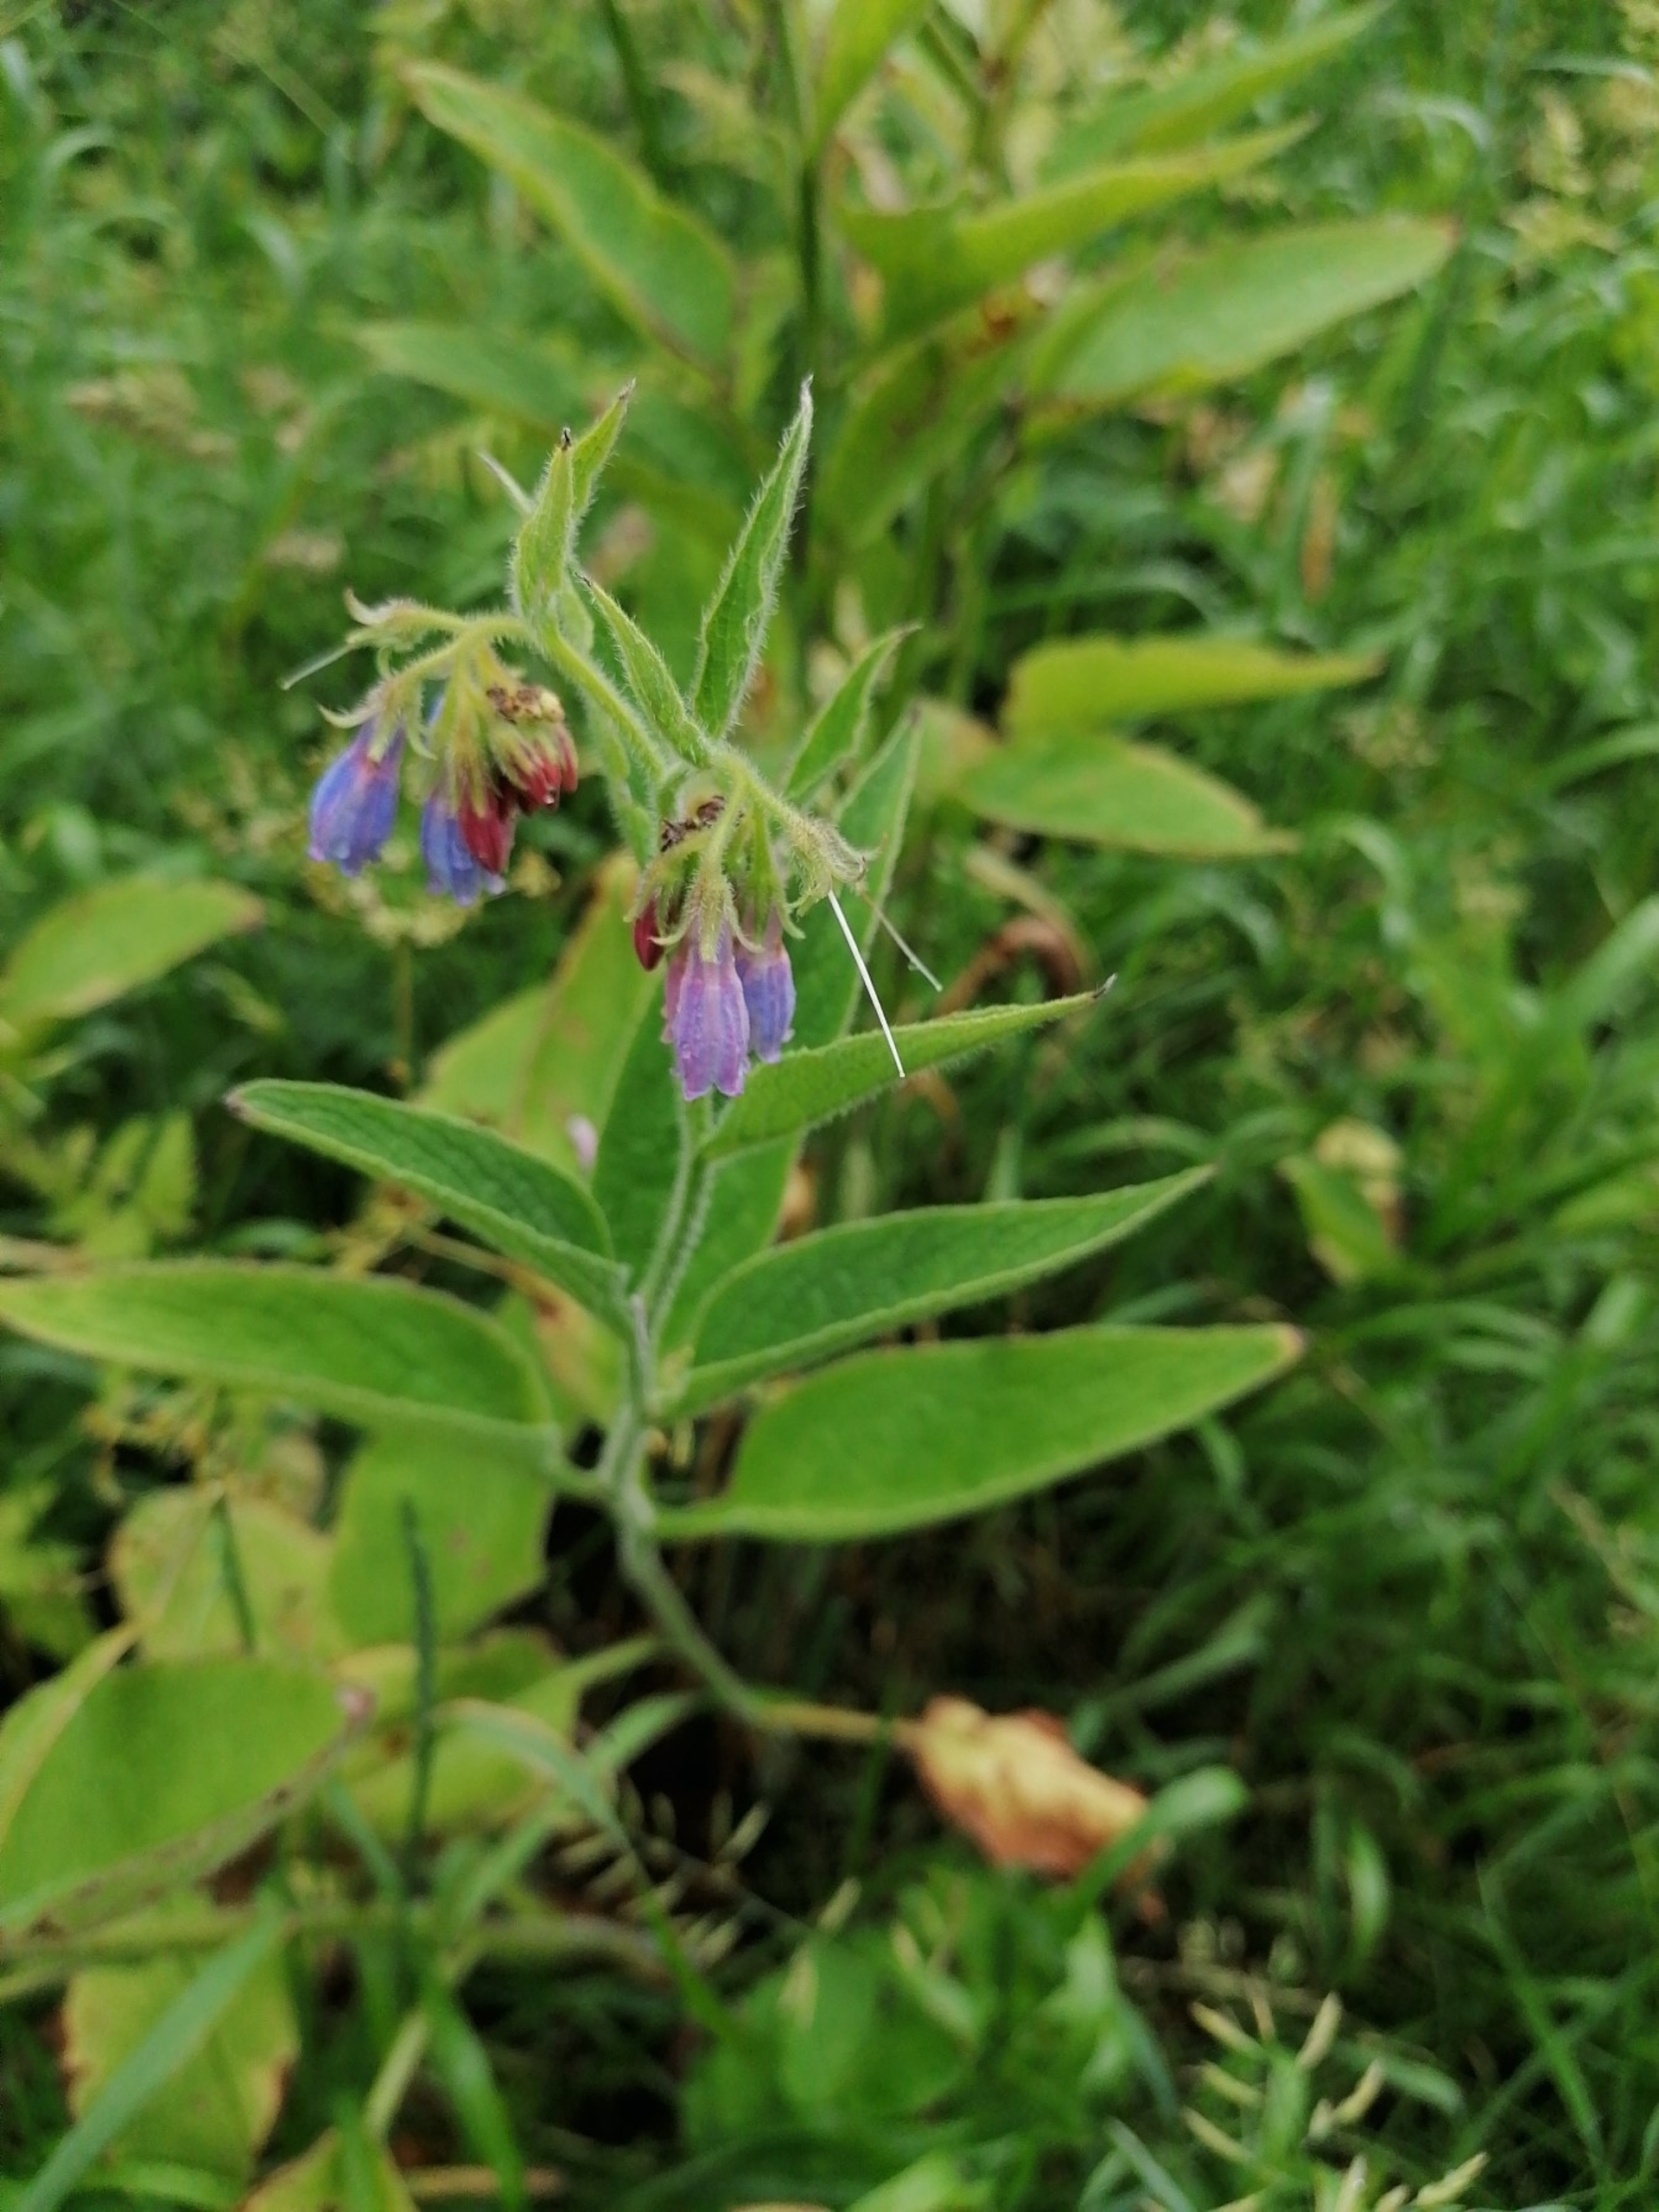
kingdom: Plantae
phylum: Tracheophyta
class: Magnoliopsida
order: Boraginales
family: Boraginaceae
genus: Symphytum
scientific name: Symphytum uplandicum
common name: Foder-kulsukker
